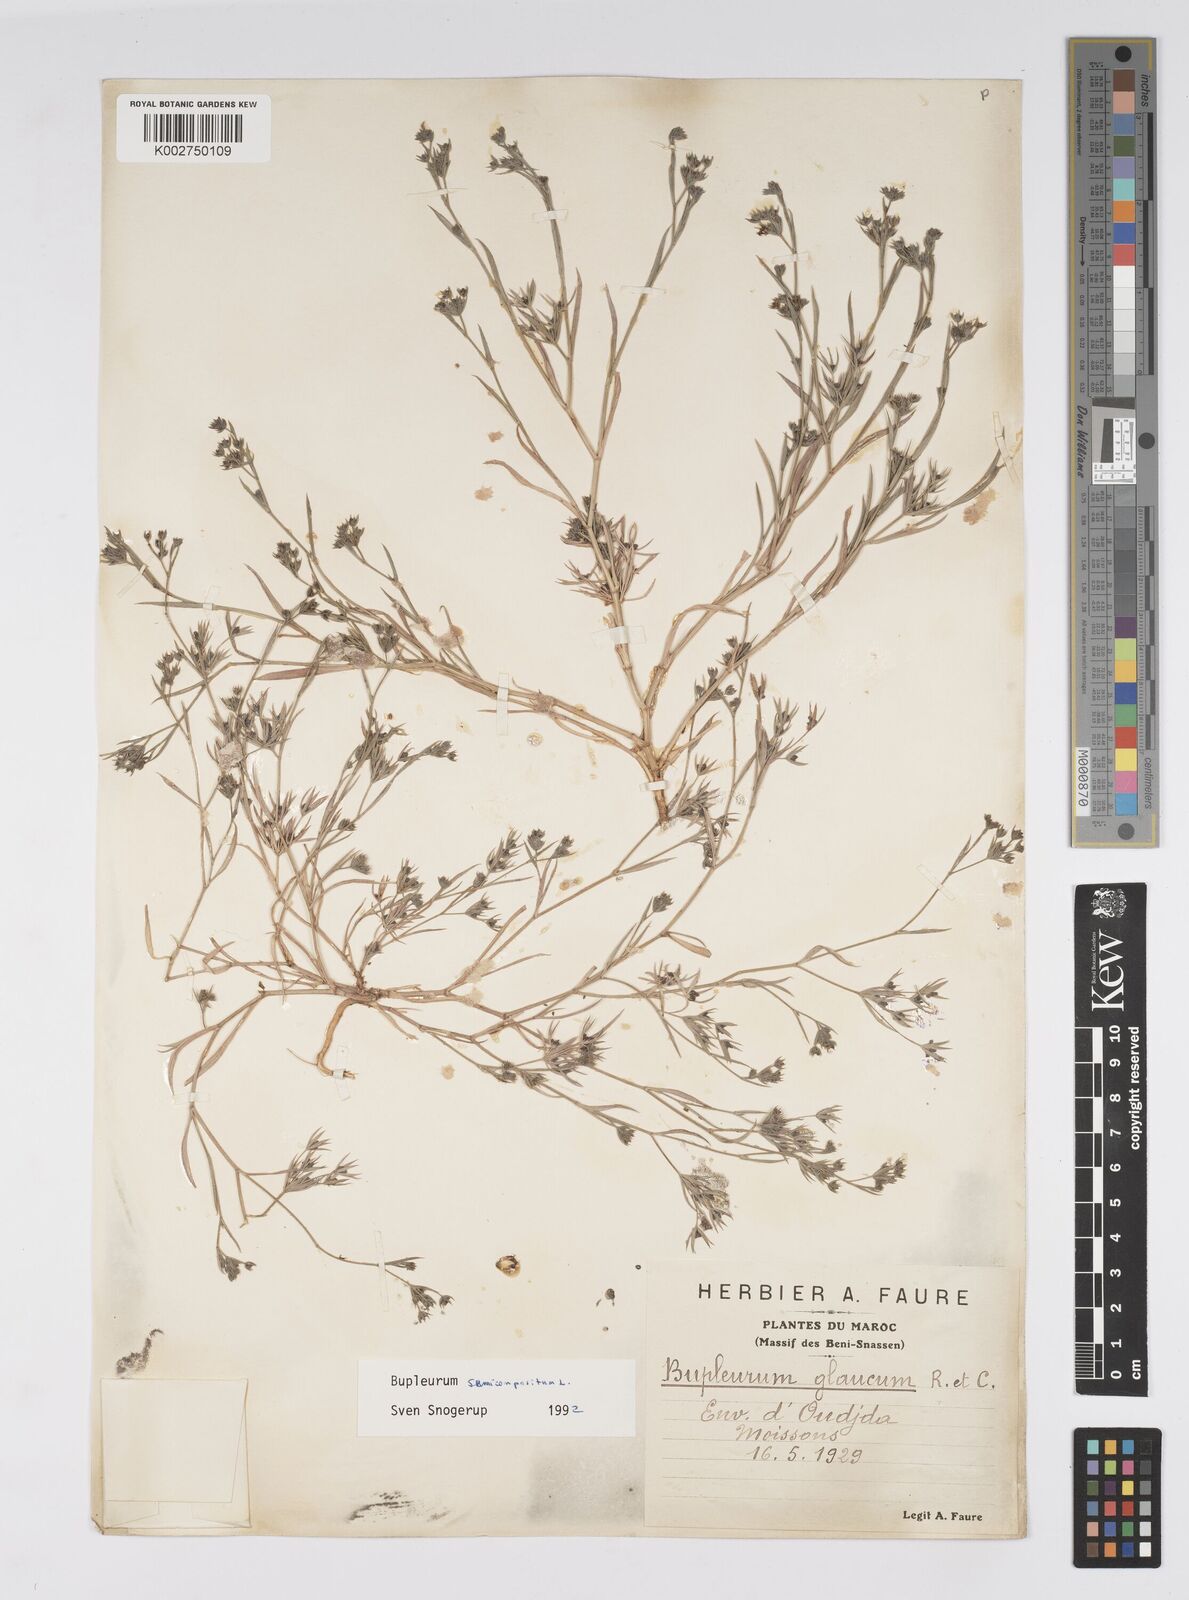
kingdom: Plantae
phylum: Tracheophyta
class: Magnoliopsida
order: Apiales
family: Apiaceae
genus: Bupleurum
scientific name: Bupleurum semicompositum
